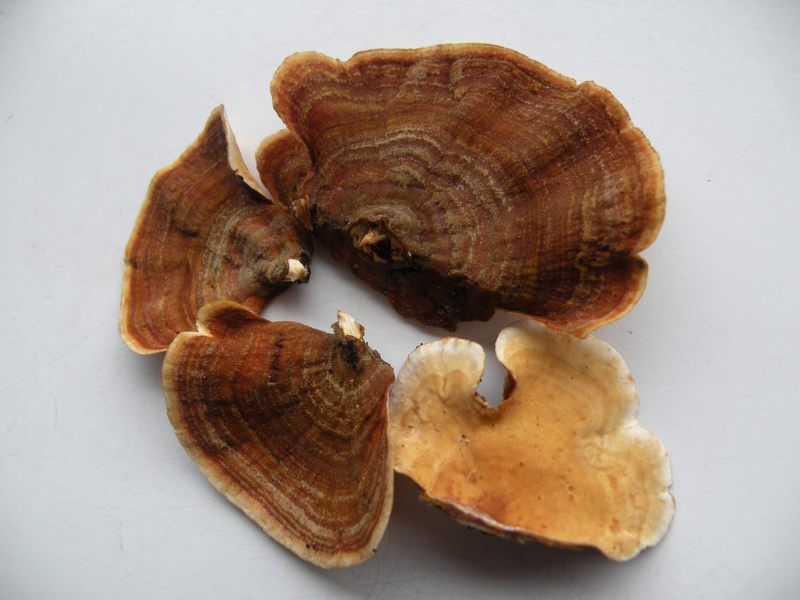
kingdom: Fungi
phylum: Basidiomycota
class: Agaricomycetes
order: Russulales
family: Stereaceae
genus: Stereum
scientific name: Stereum subtomentosum
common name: smuk lædersvamp
